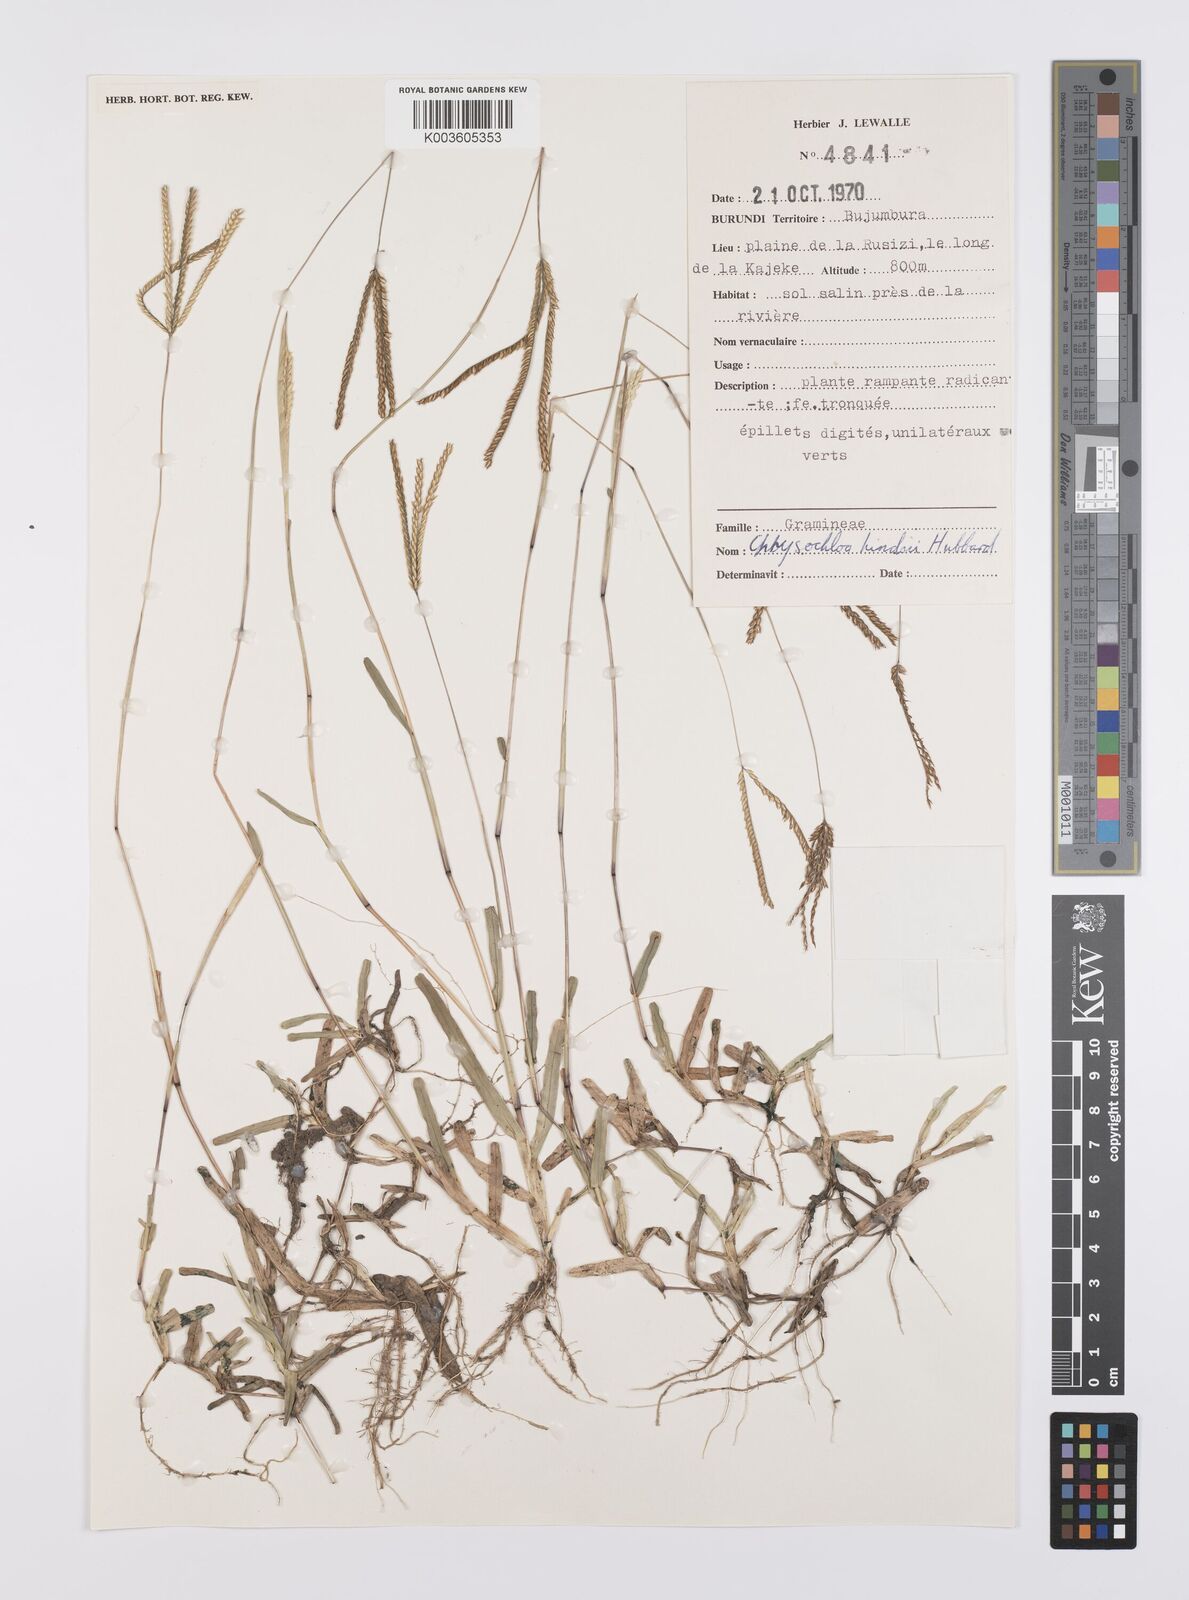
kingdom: Plantae
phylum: Tracheophyta
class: Liliopsida
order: Poales
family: Poaceae
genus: Chrysochloa
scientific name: Chrysochloa hindsii
